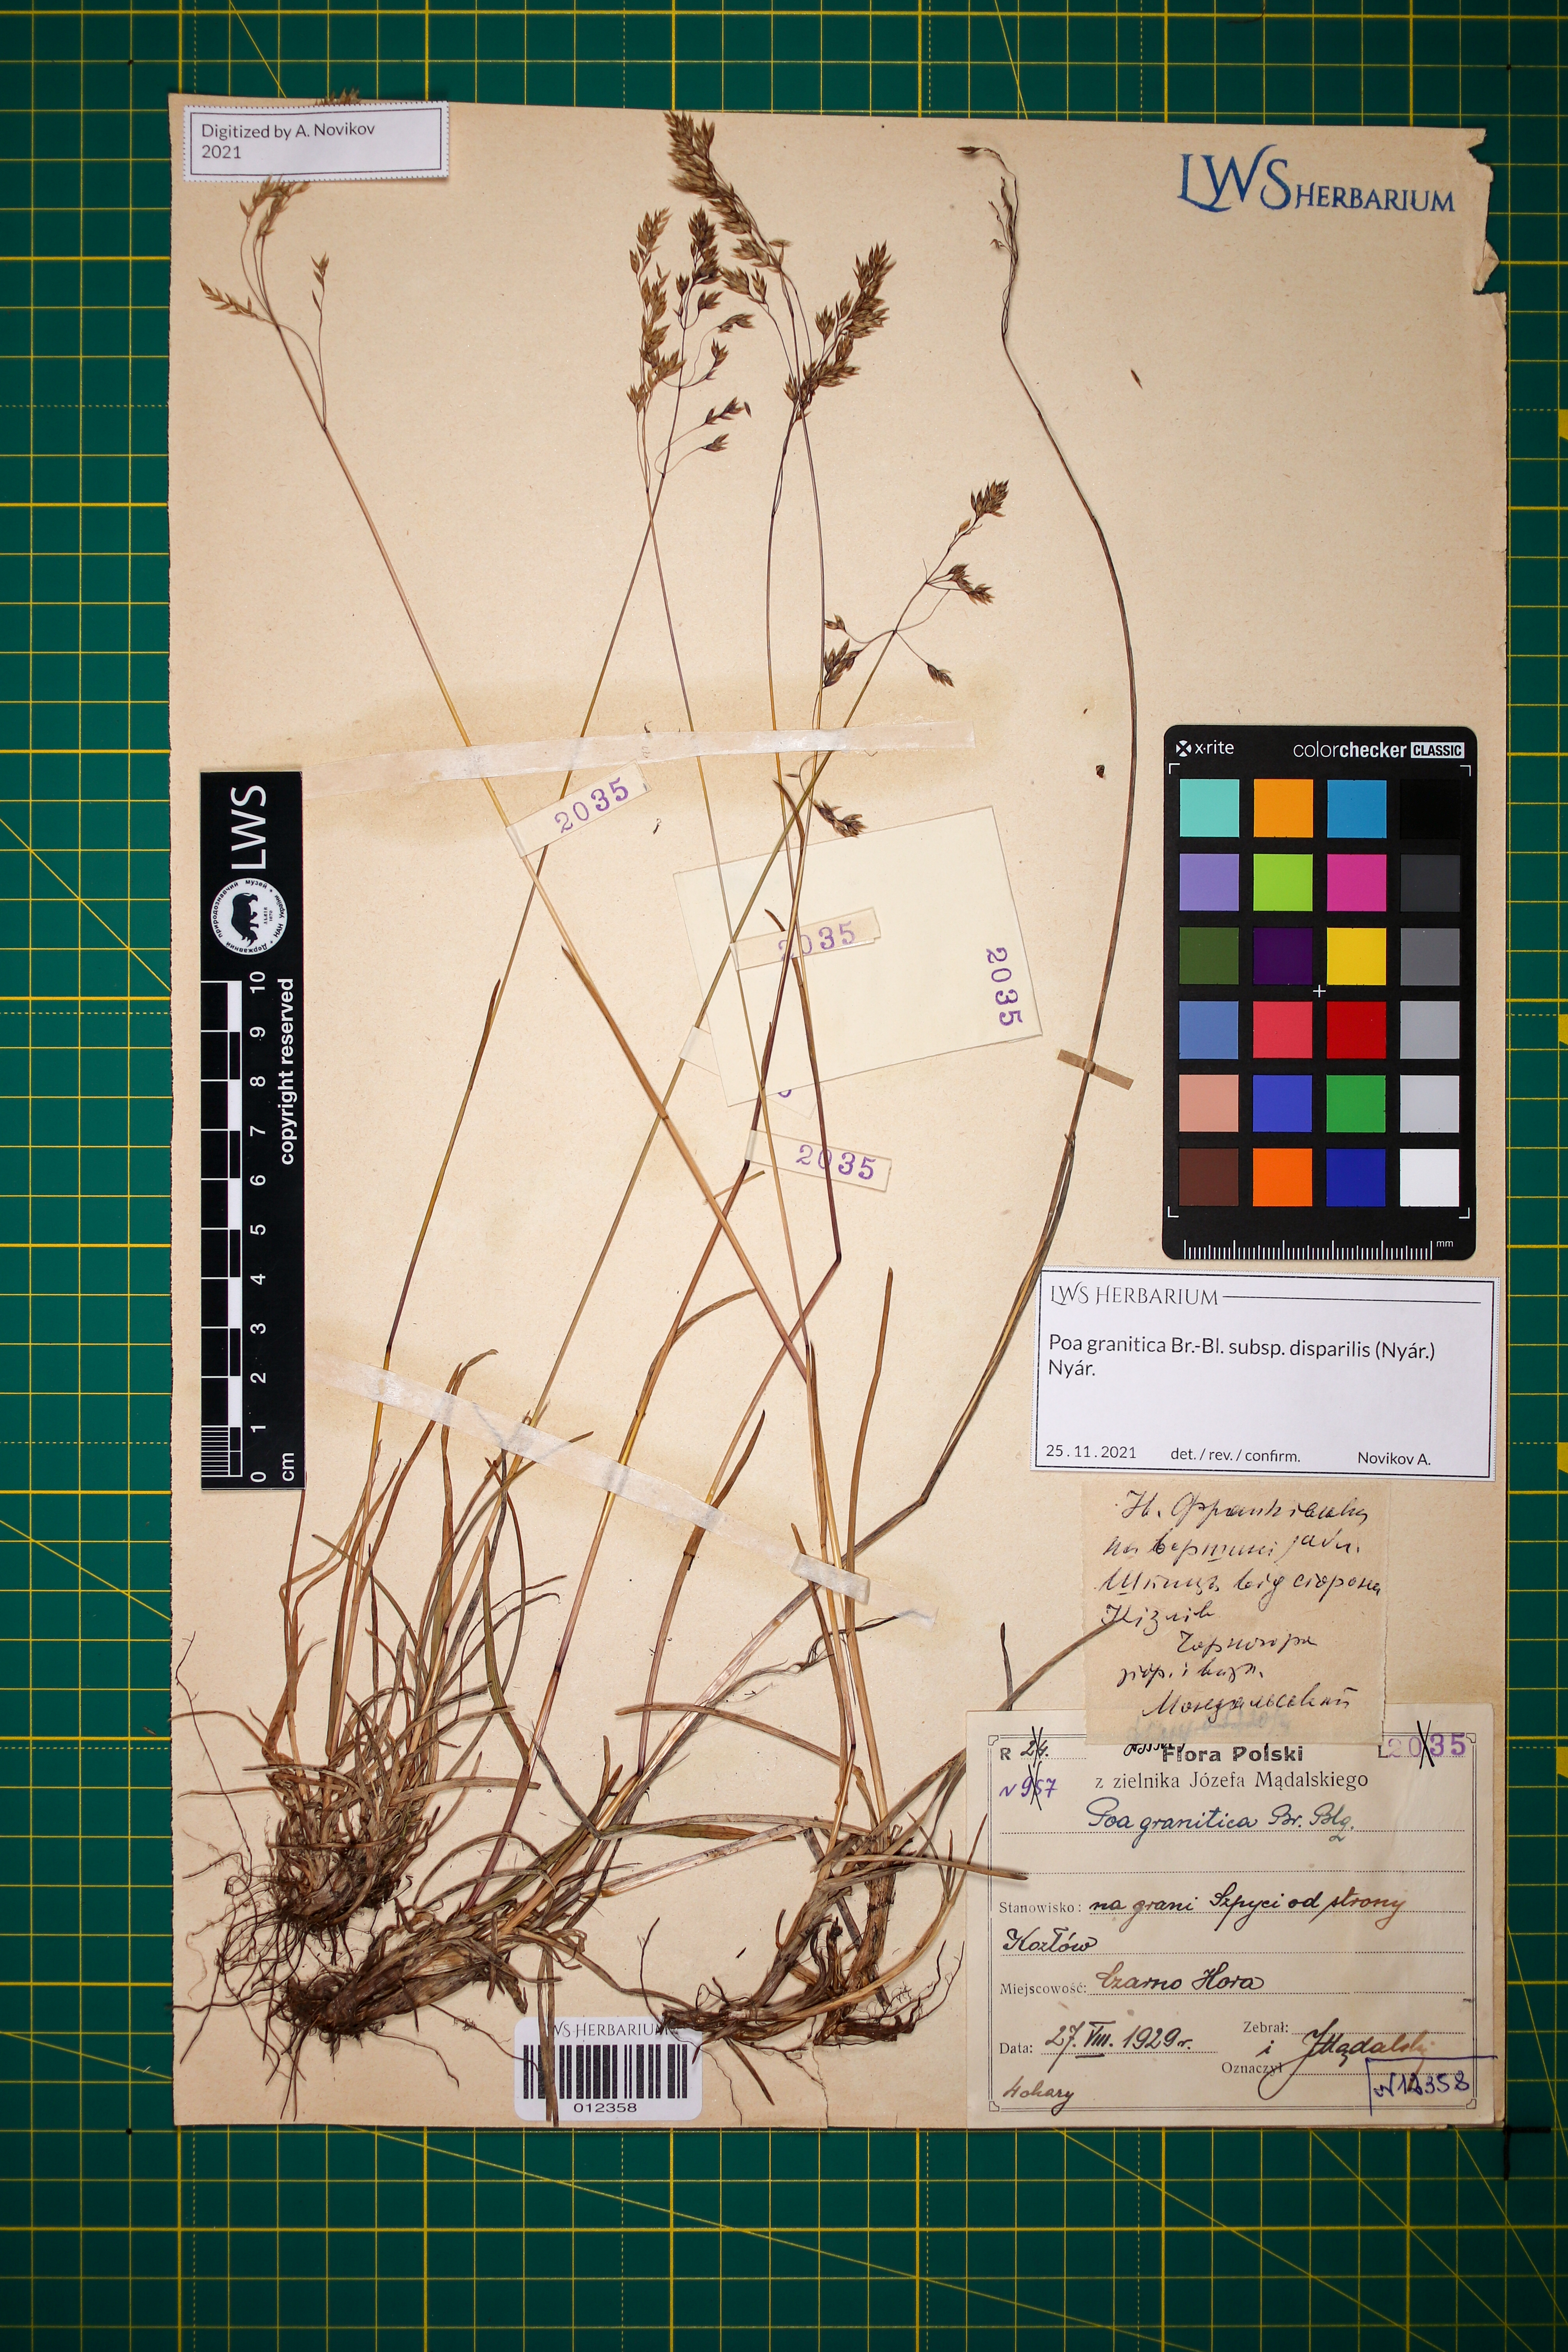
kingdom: Plantae
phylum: Tracheophyta
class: Liliopsida
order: Poales
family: Poaceae
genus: Poa
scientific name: Poa granitica
